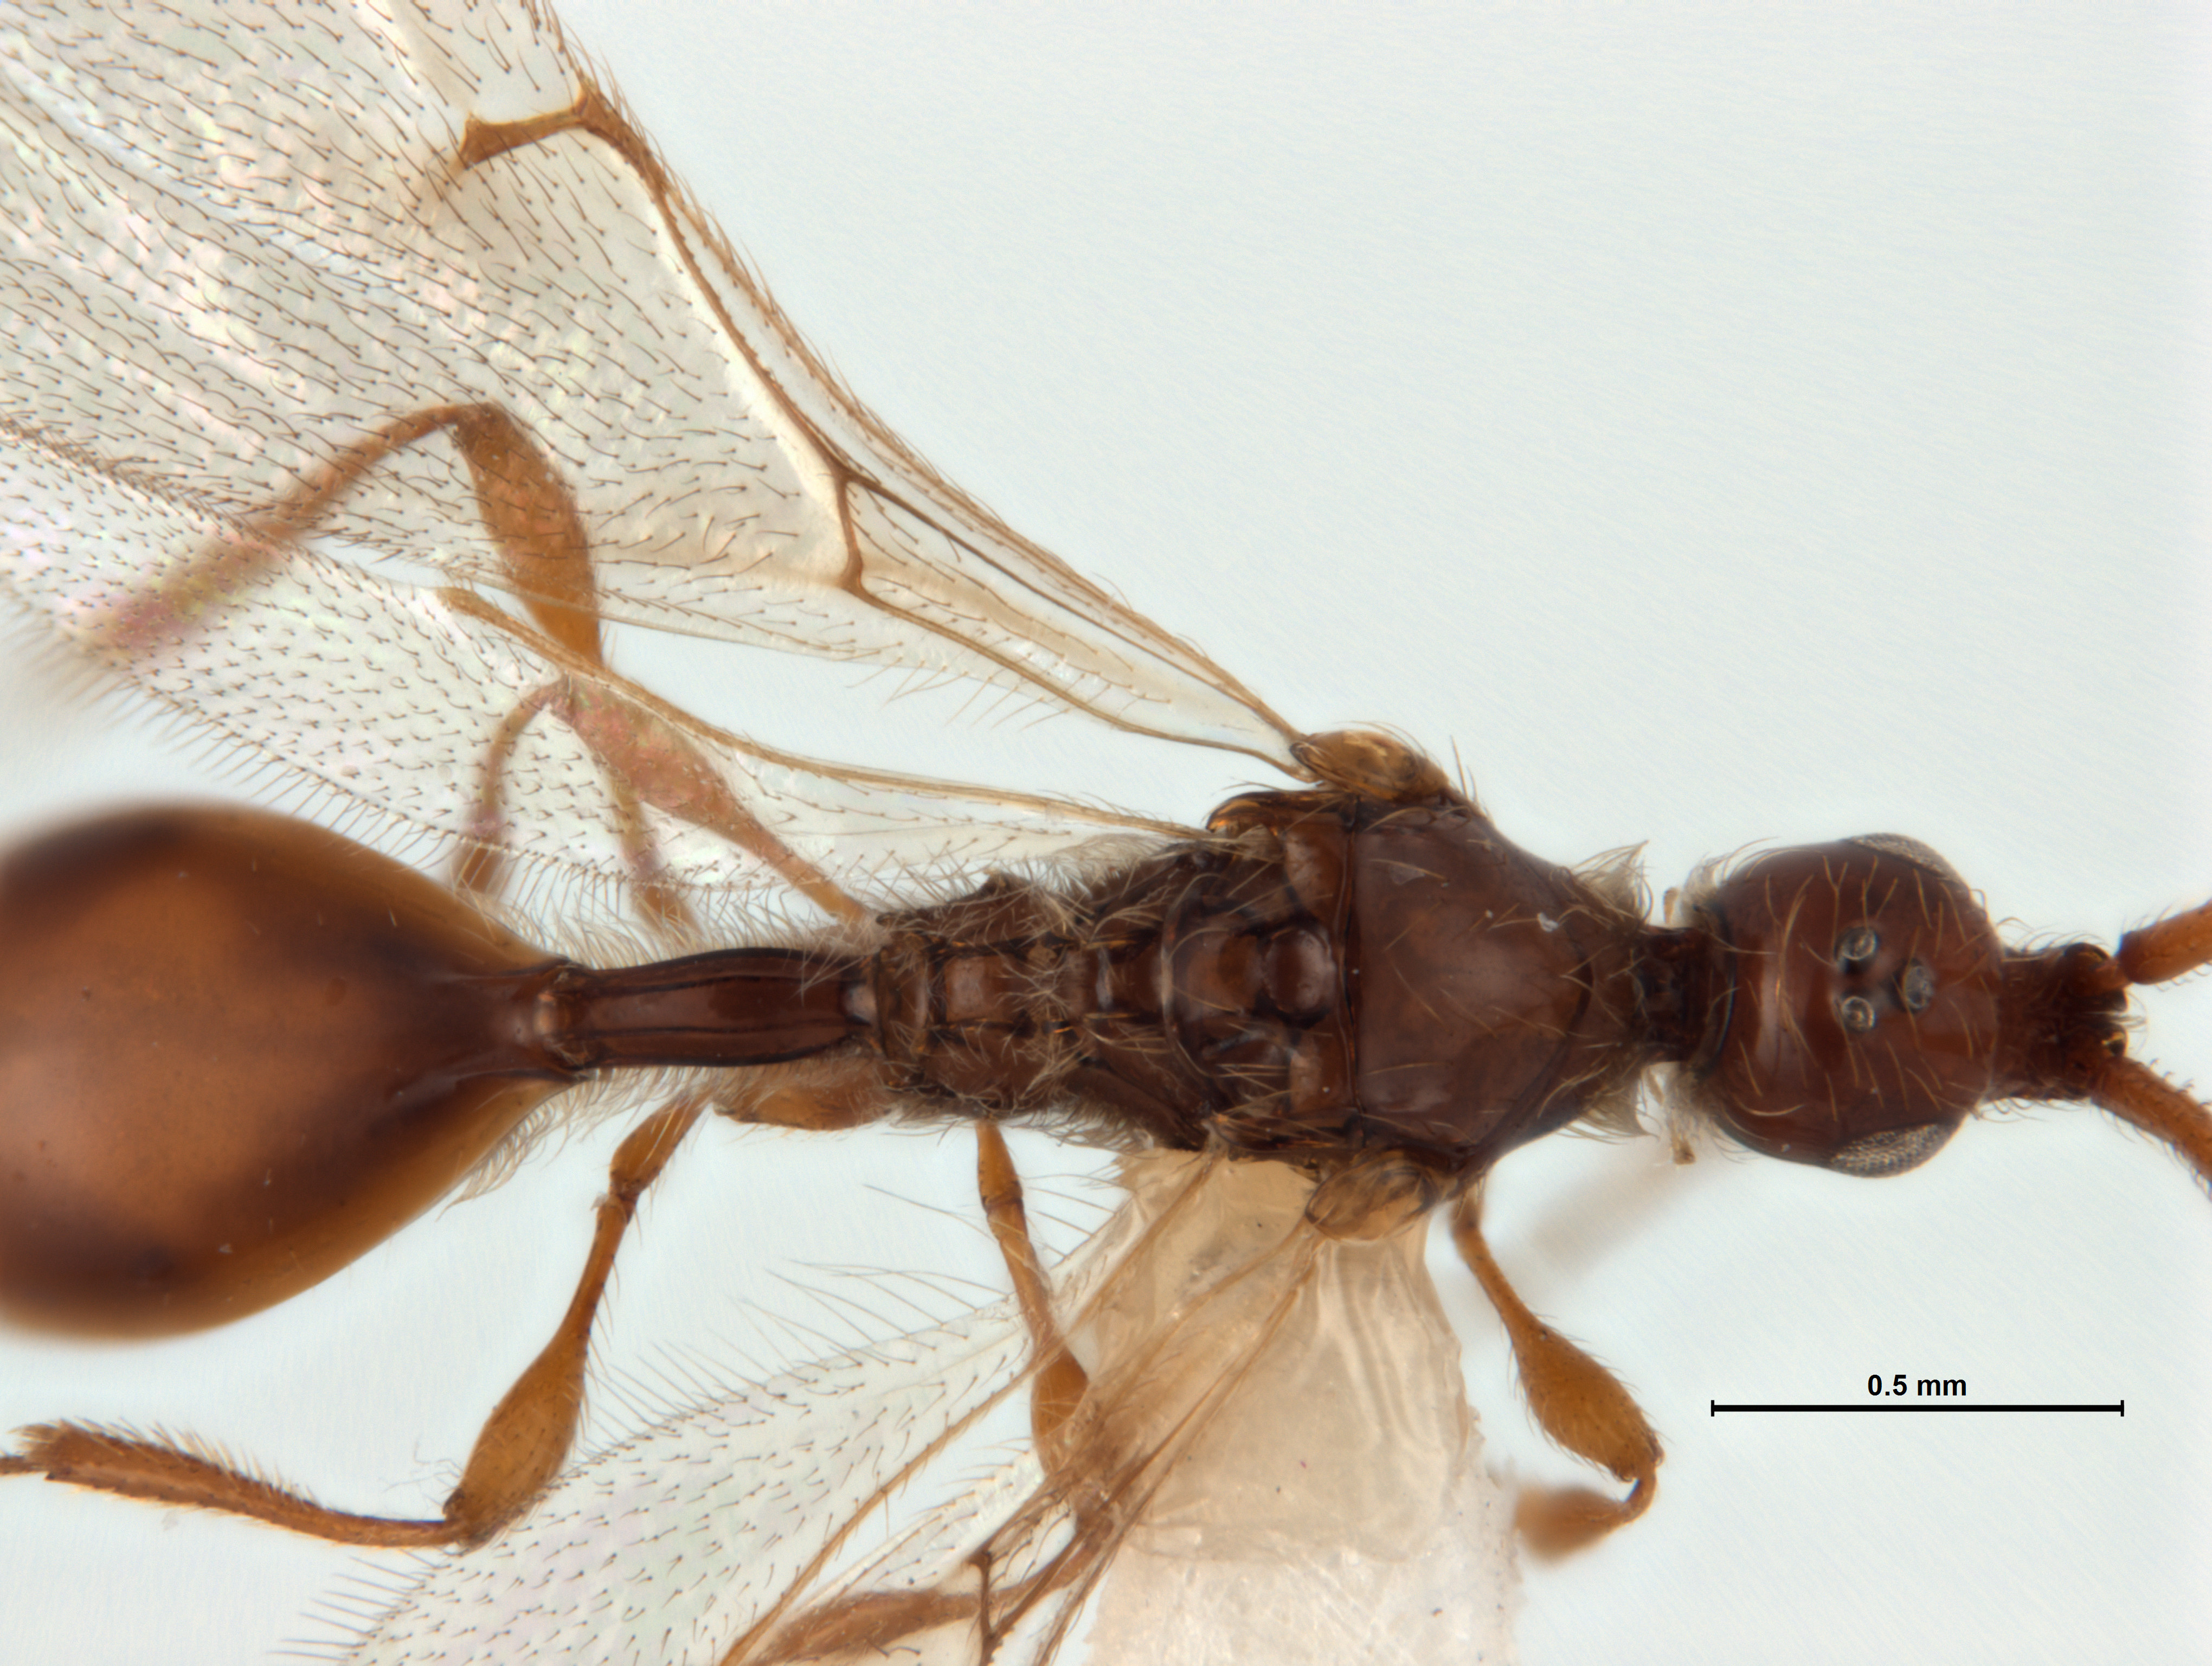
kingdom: Animalia
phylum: Arthropoda
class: Insecta
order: Hymenoptera
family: Diapriidae
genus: Archaeopria
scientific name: Archaeopria pristina
